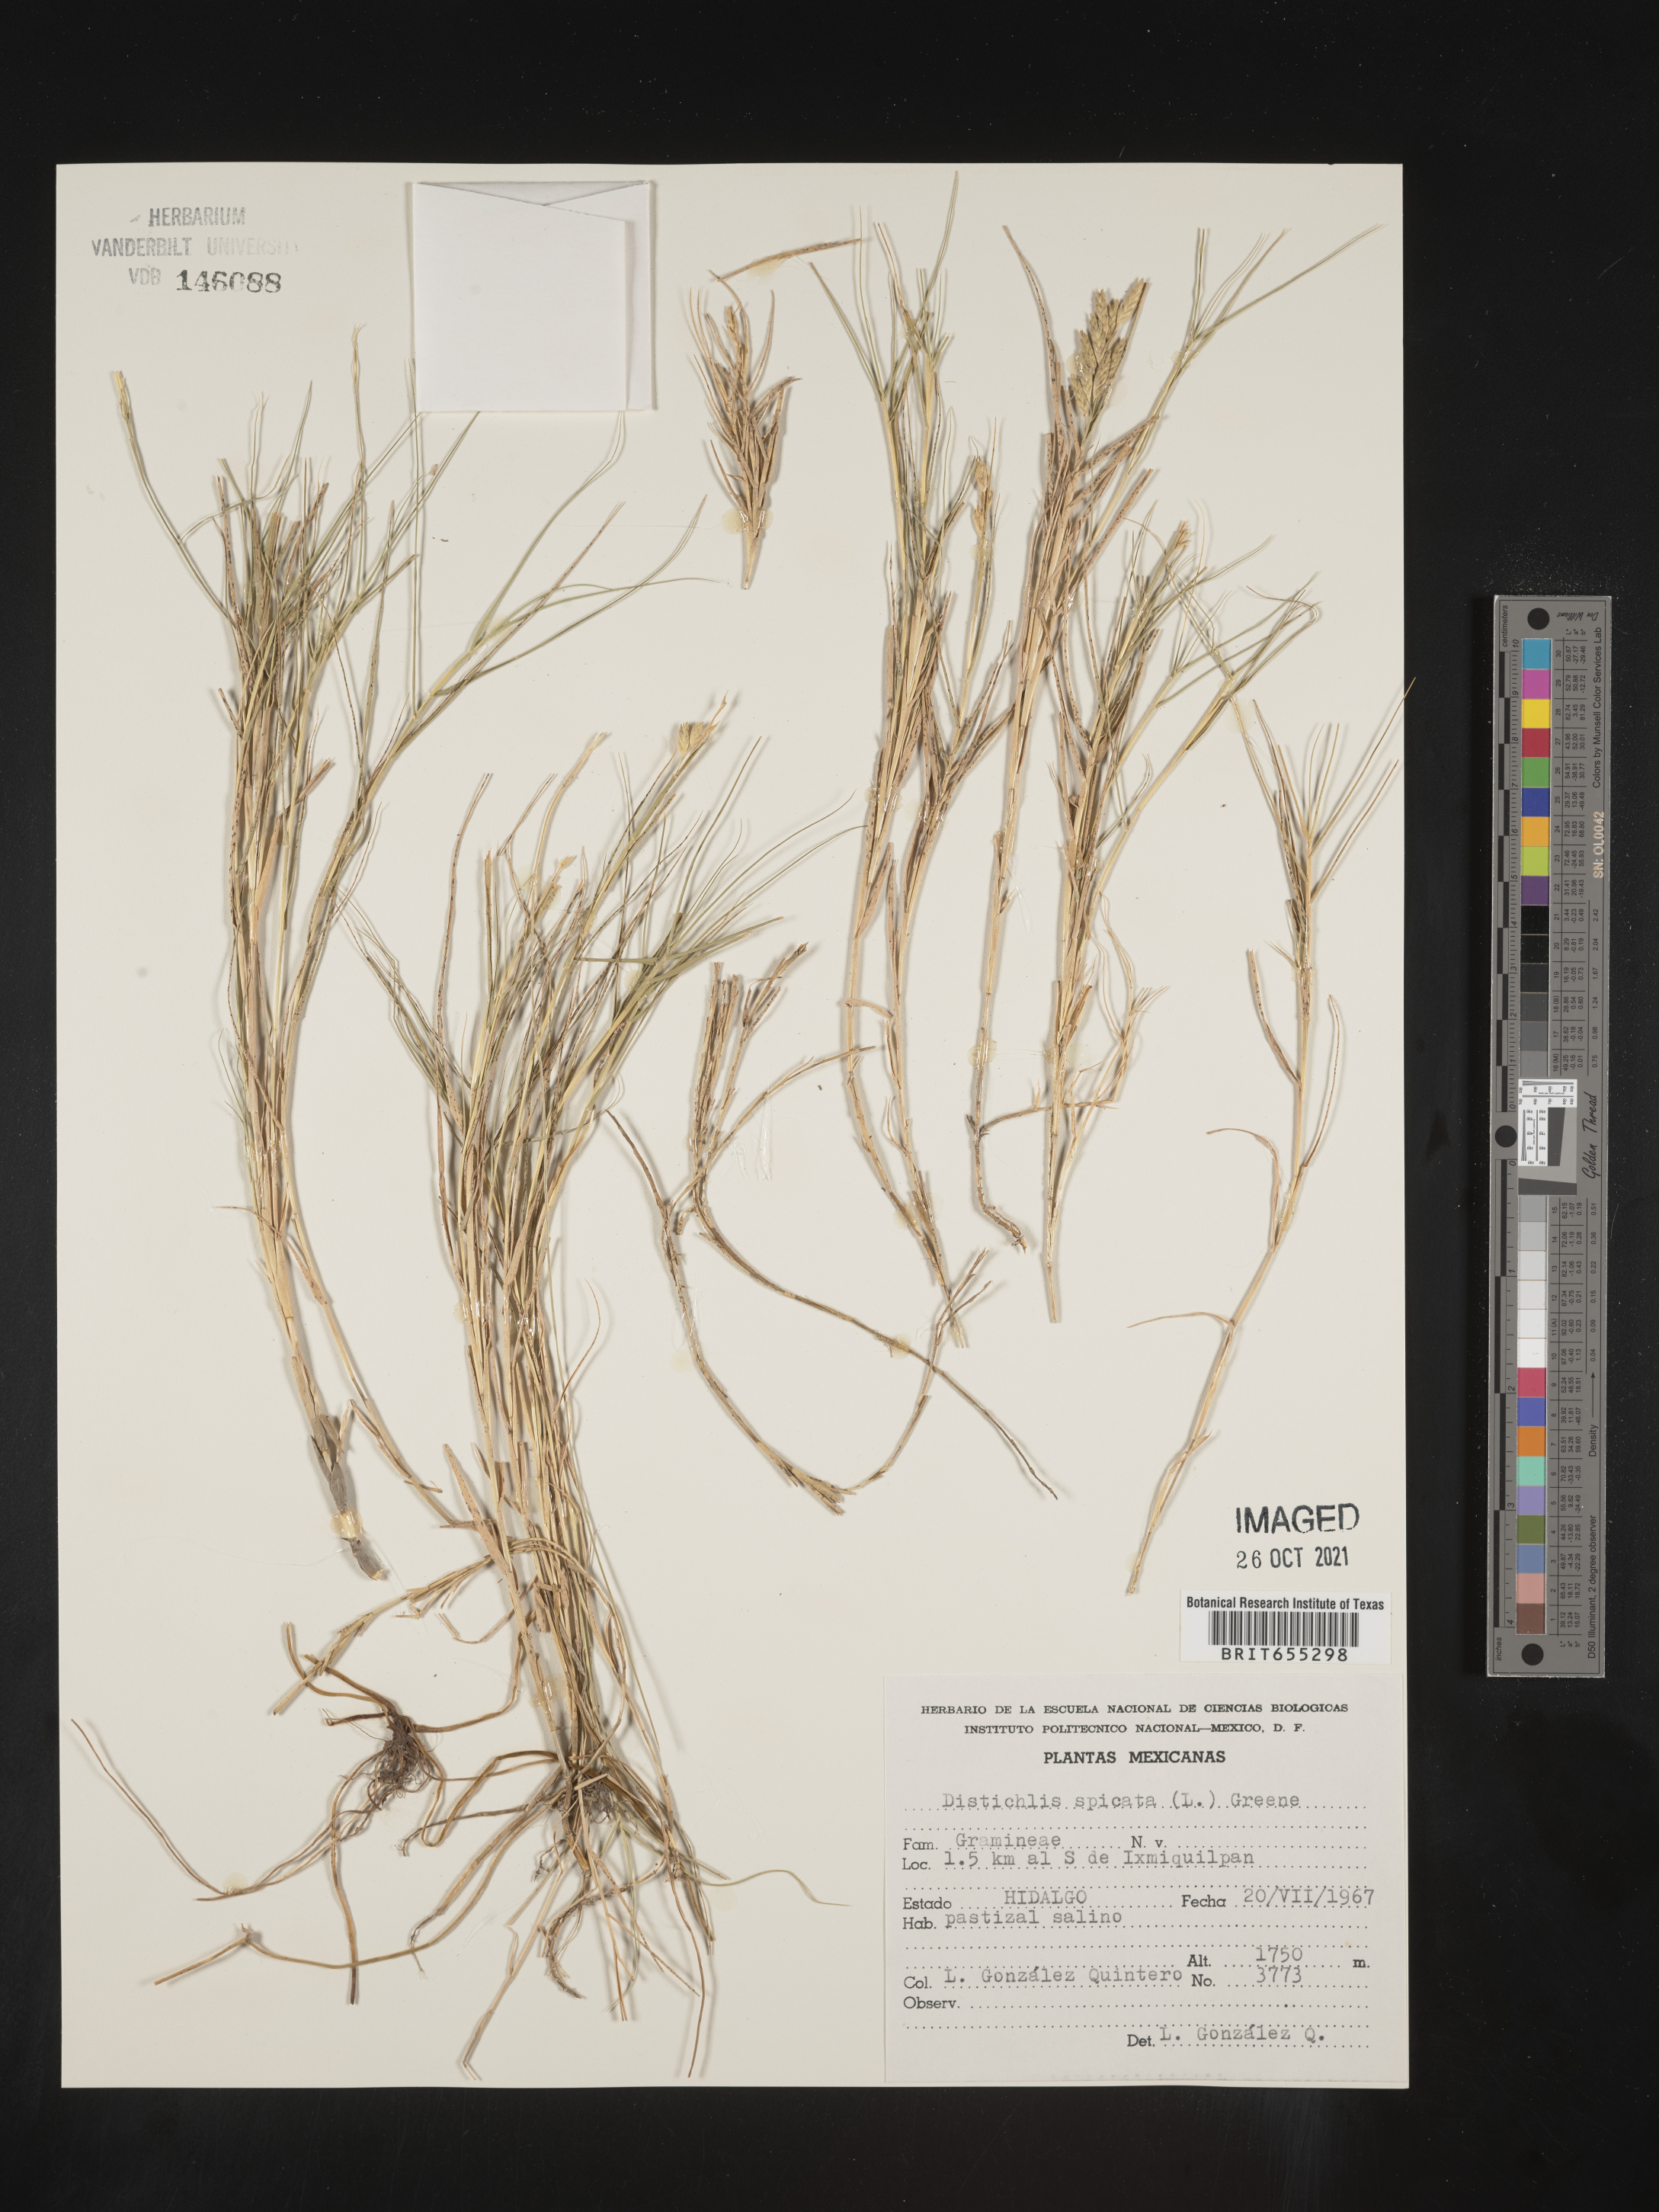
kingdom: Plantae
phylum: Tracheophyta
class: Liliopsida
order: Poales
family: Poaceae
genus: Distichlis
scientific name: Distichlis
